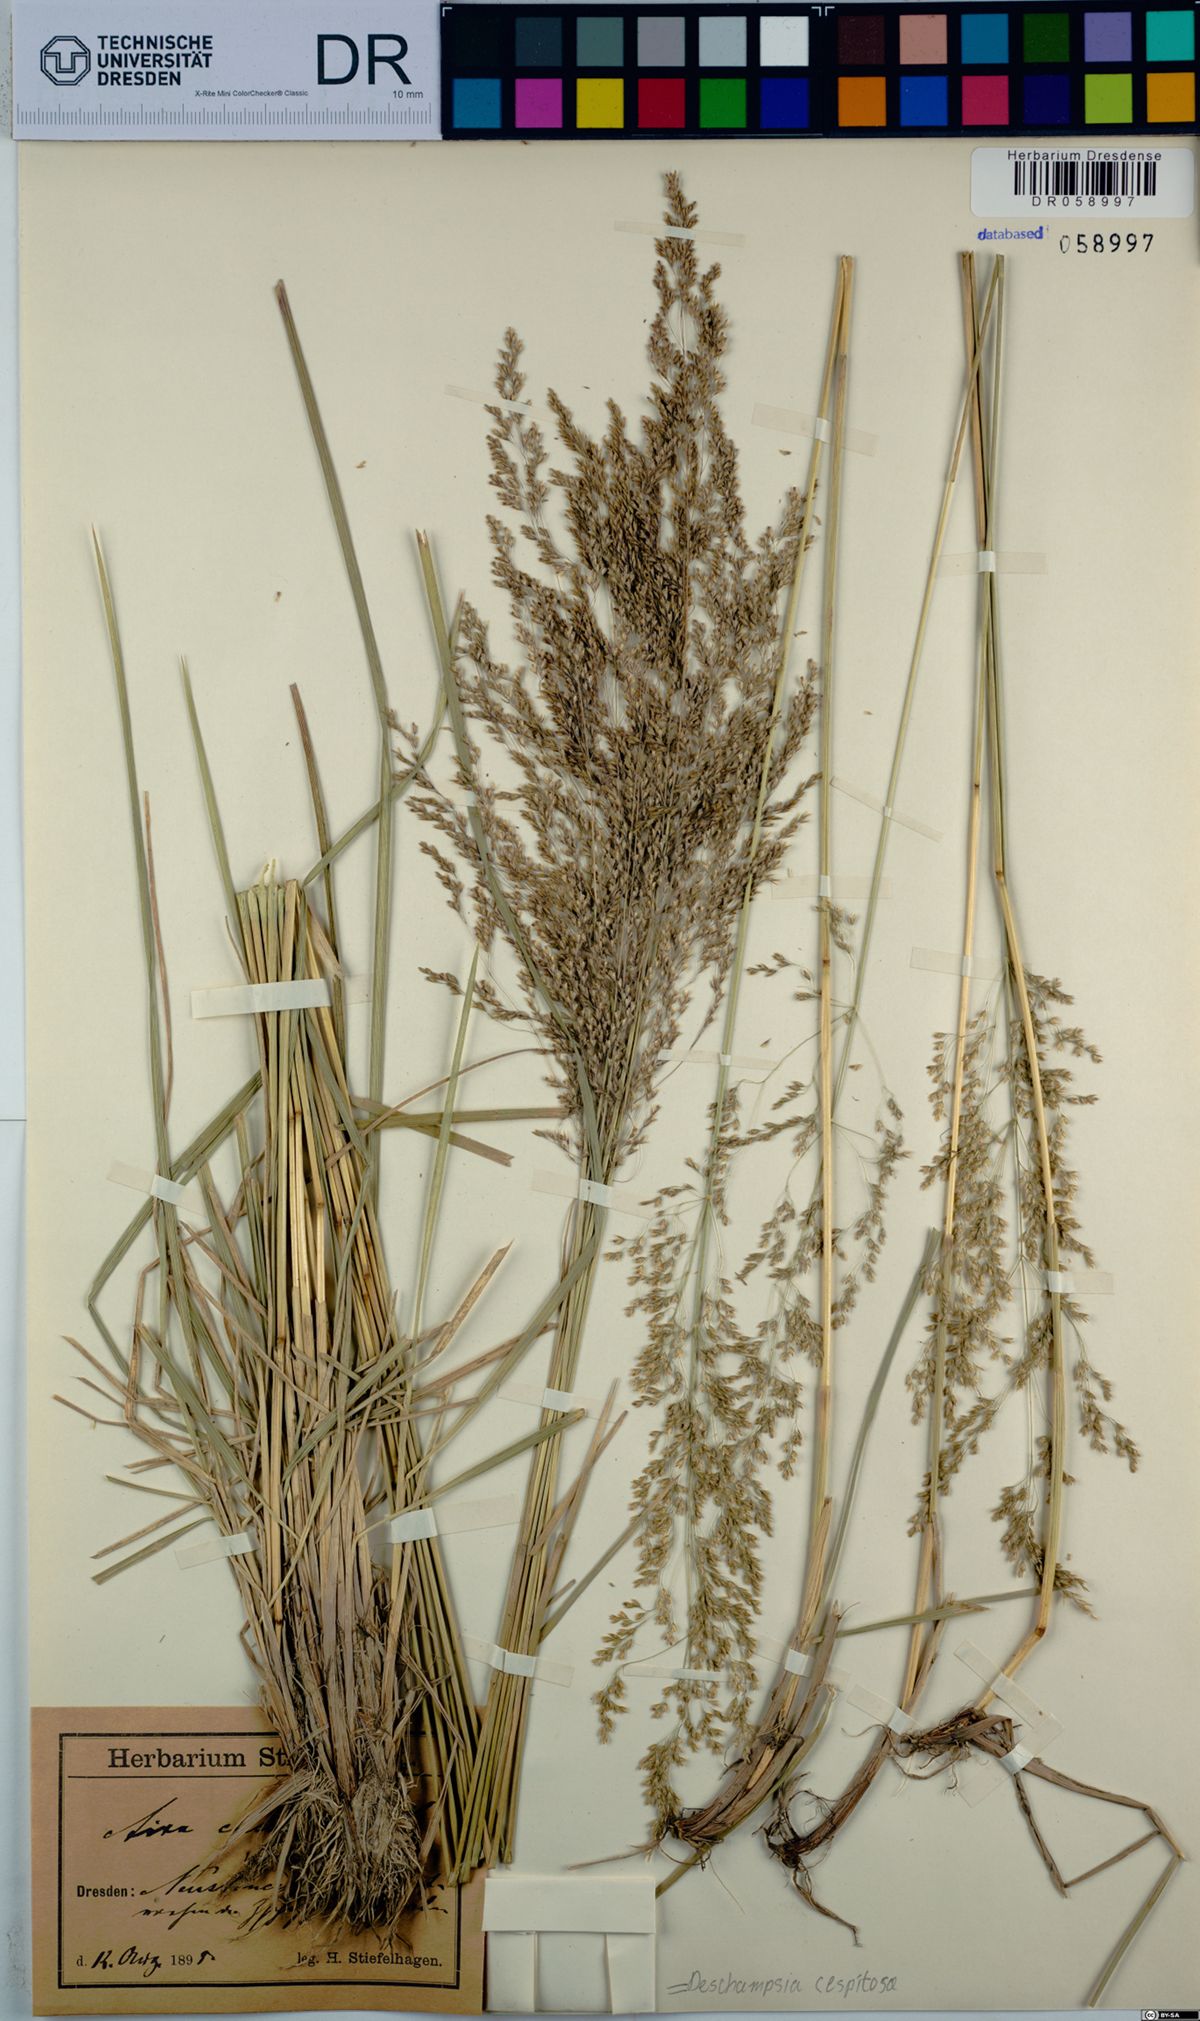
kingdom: Plantae
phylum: Tracheophyta
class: Liliopsida
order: Poales
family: Poaceae
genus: Deschampsia
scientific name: Deschampsia cespitosa
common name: Tufted hair-grass
